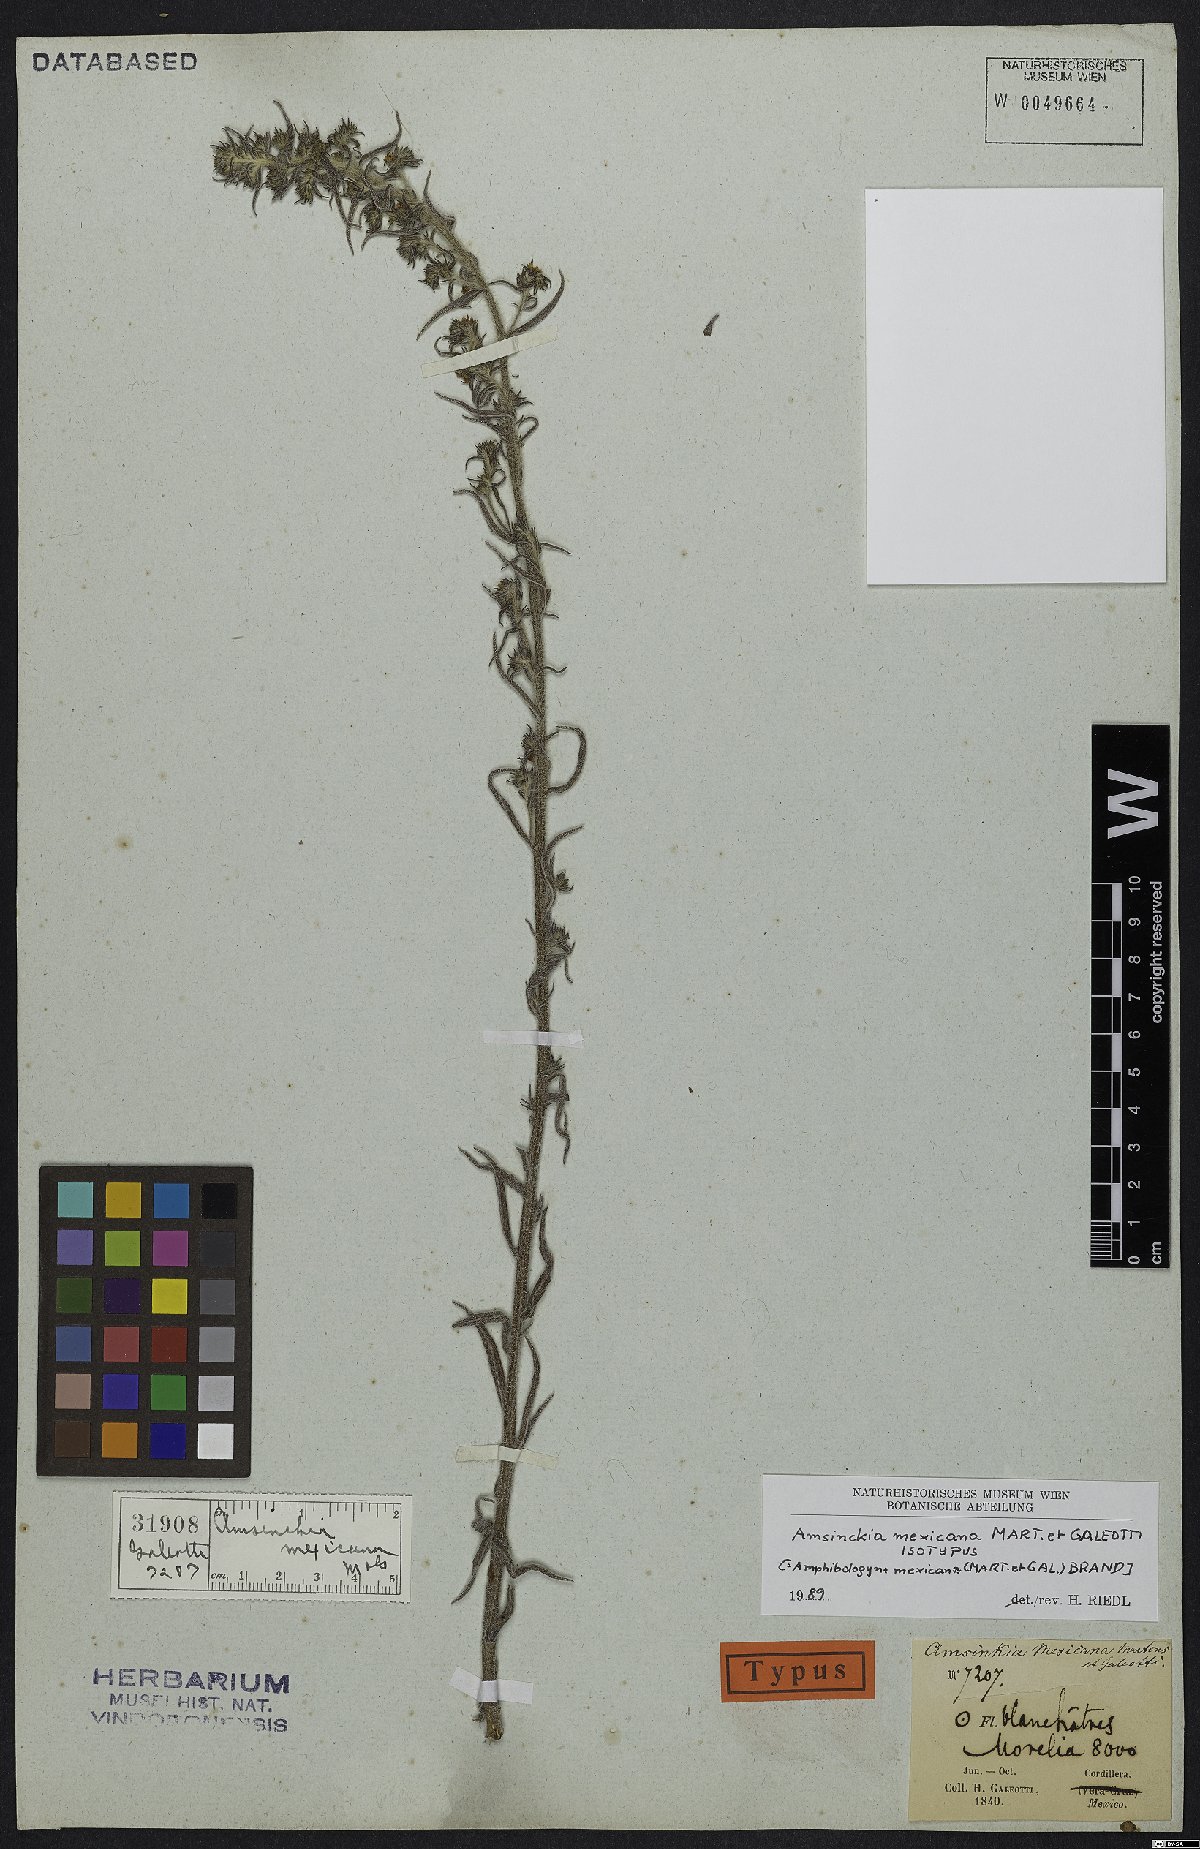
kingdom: Plantae
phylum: Tracheophyta
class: Magnoliopsida
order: Boraginales
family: Boraginaceae
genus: Amsinckia
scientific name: Amsinckia mexicana
